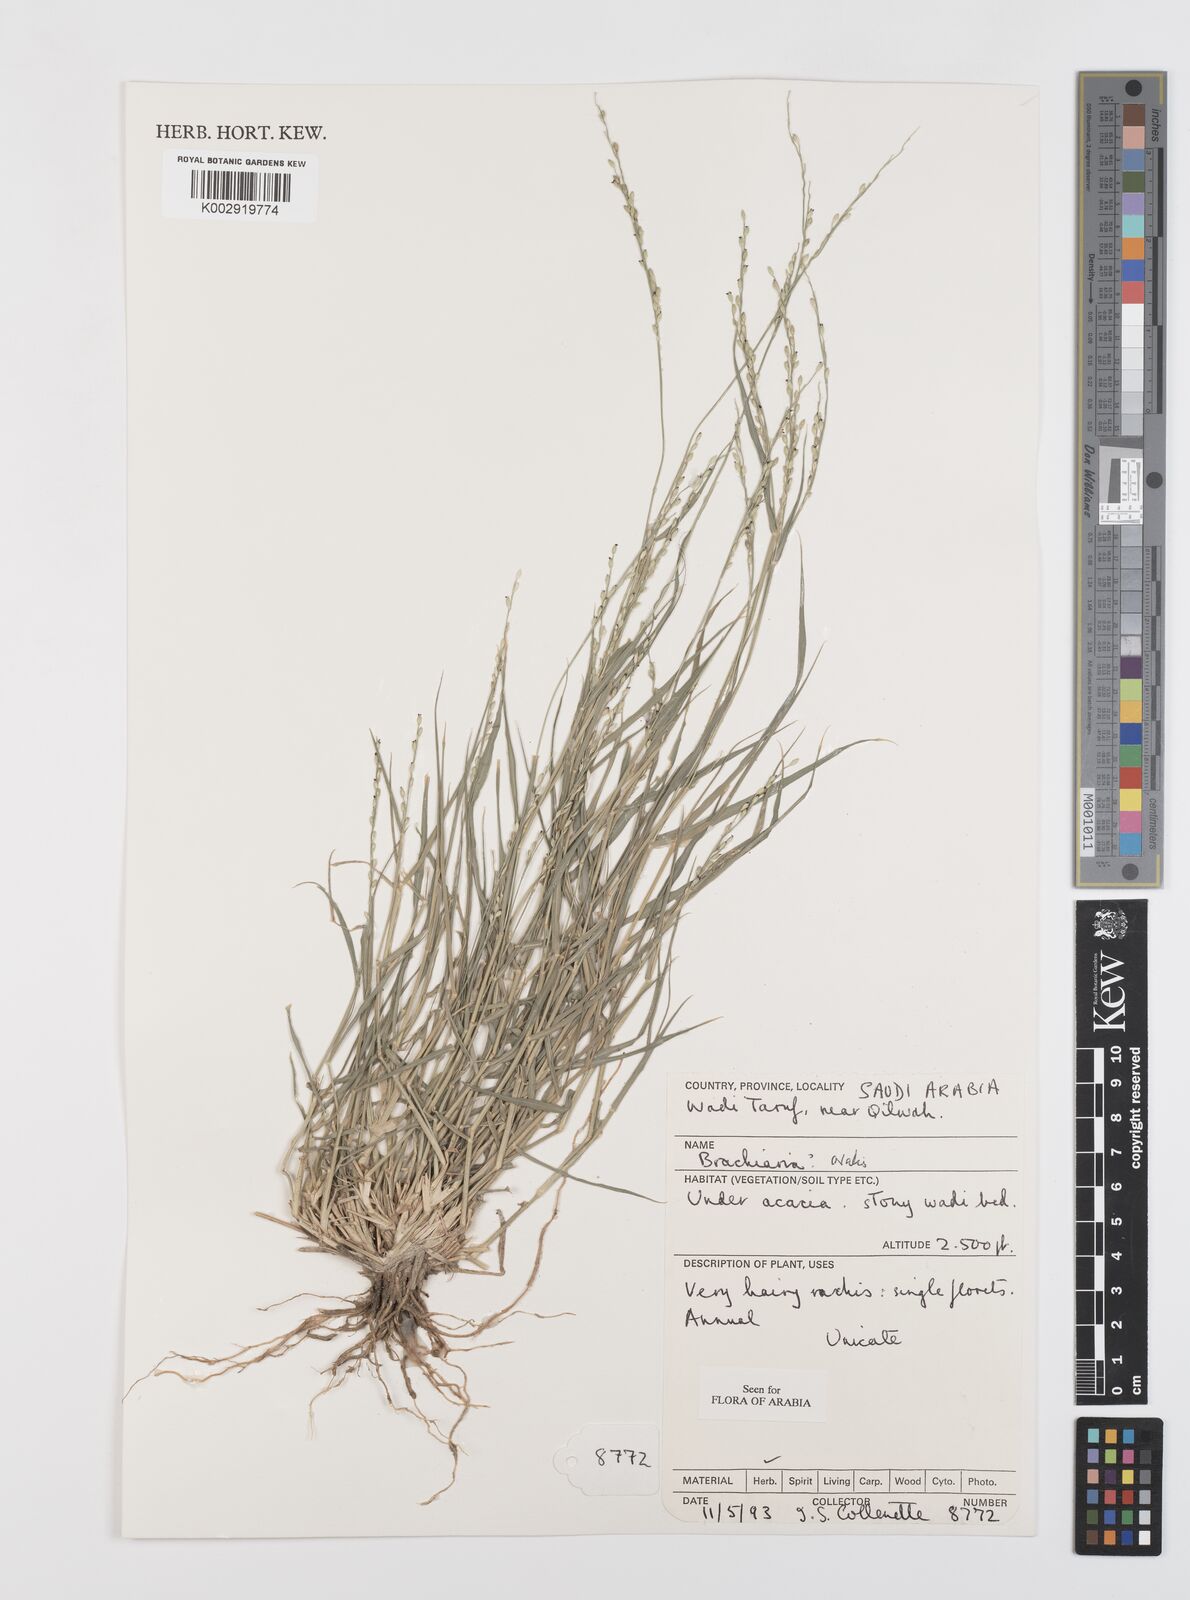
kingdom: Plantae
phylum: Tracheophyta
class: Liliopsida
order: Poales
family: Poaceae
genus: Urochloa
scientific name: Urochloa ovalis
